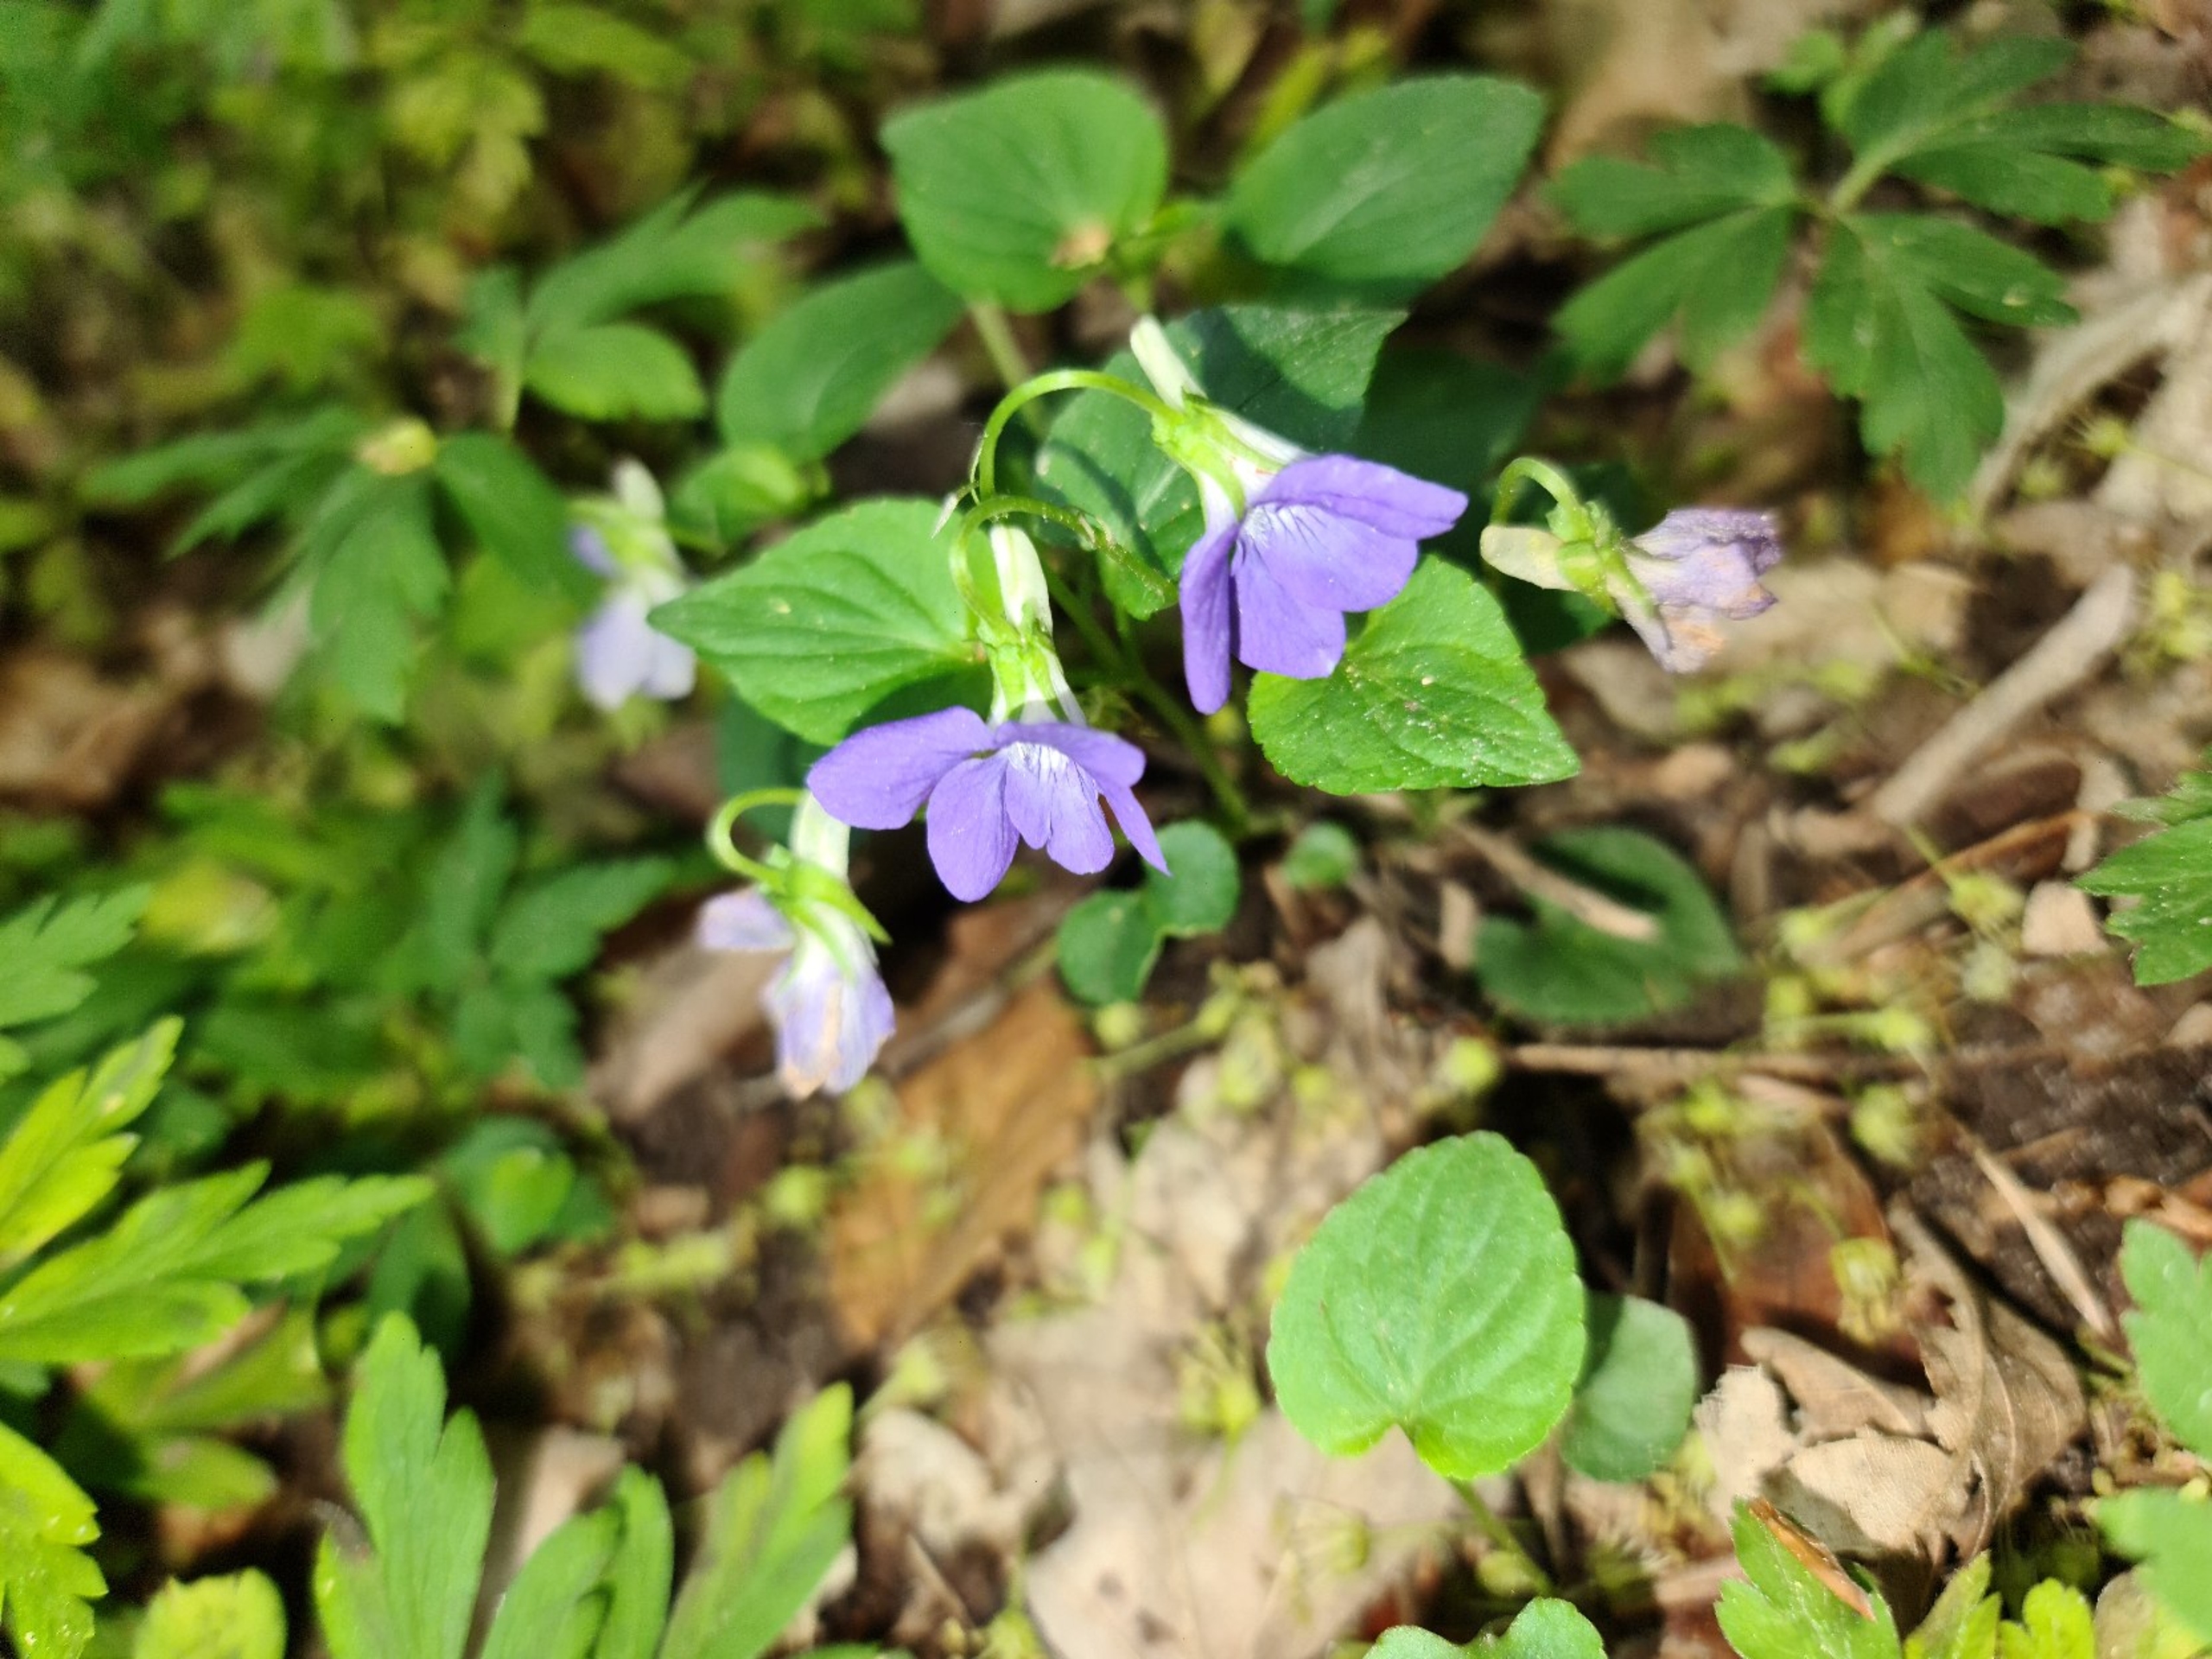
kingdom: Plantae
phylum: Tracheophyta
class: Magnoliopsida
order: Lamiales
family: Plantaginaceae
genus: Veronica
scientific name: Veronica montana
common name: Bjerg-ærenpris
